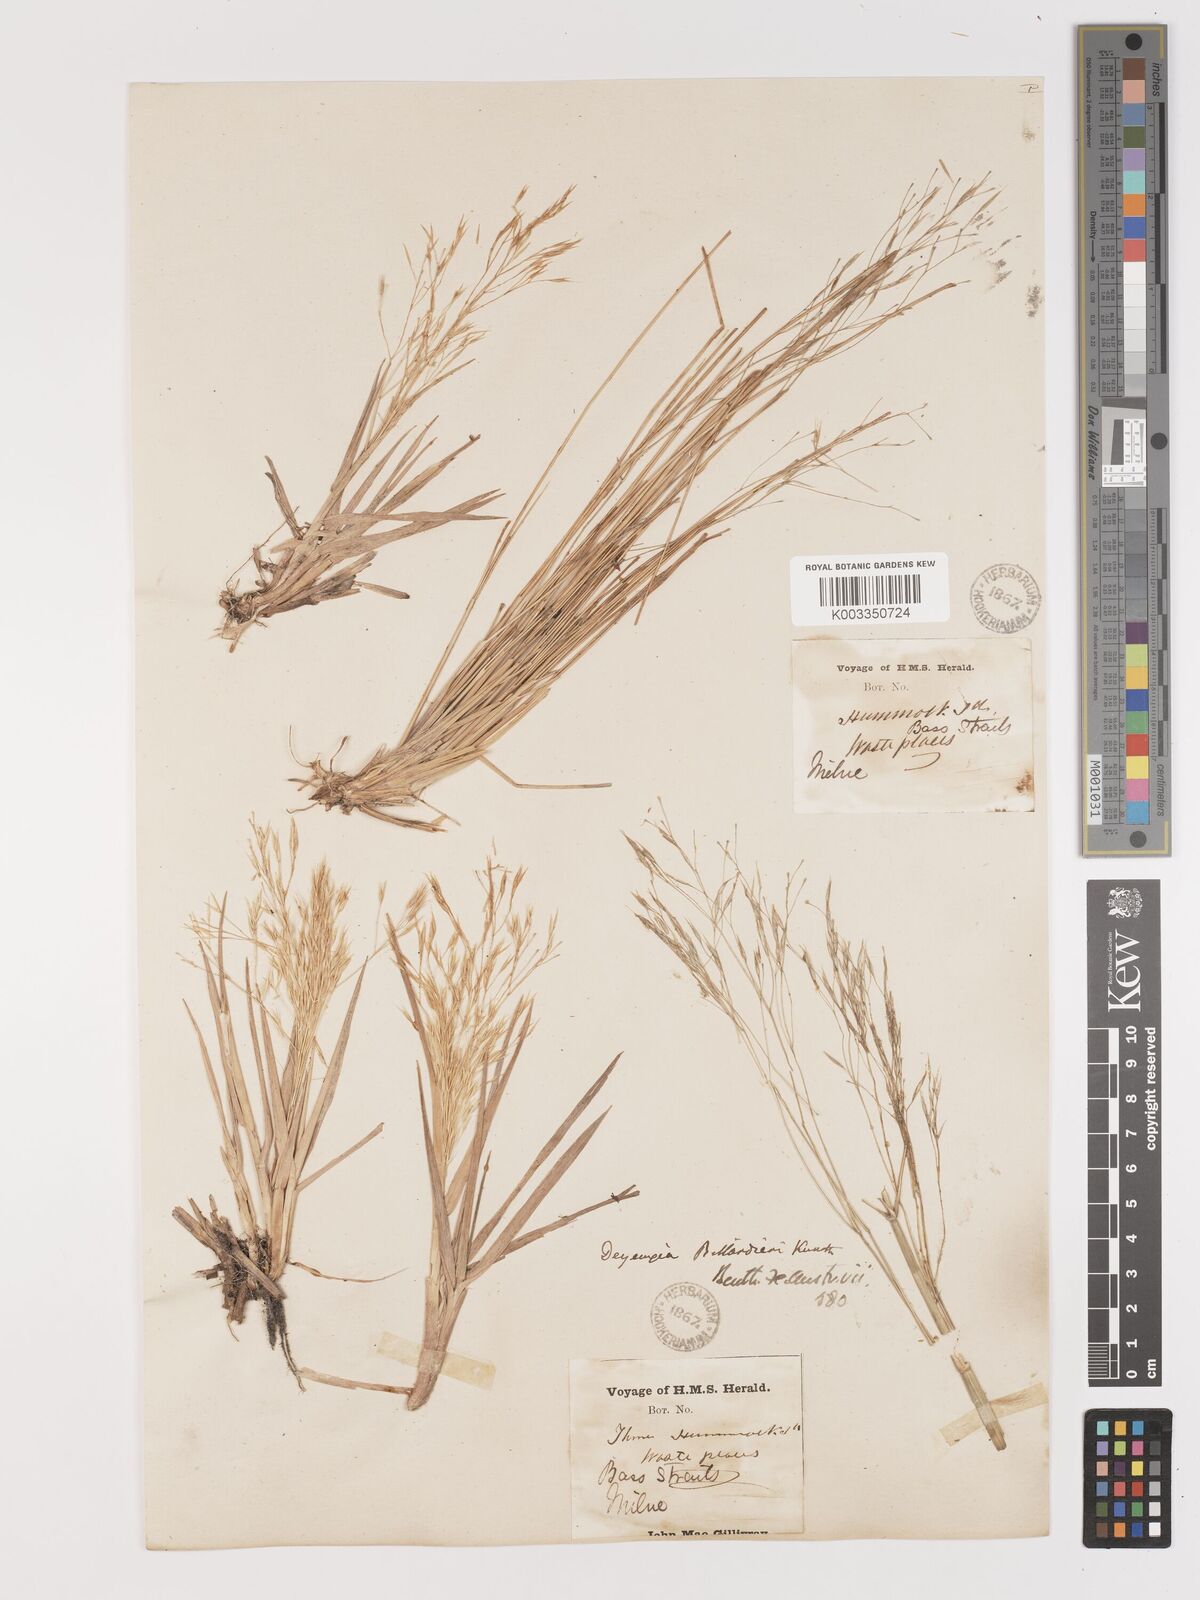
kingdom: Plantae
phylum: Tracheophyta
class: Liliopsida
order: Poales
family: Poaceae
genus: Lachnagrostis
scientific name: Lachnagrostis billardierei
